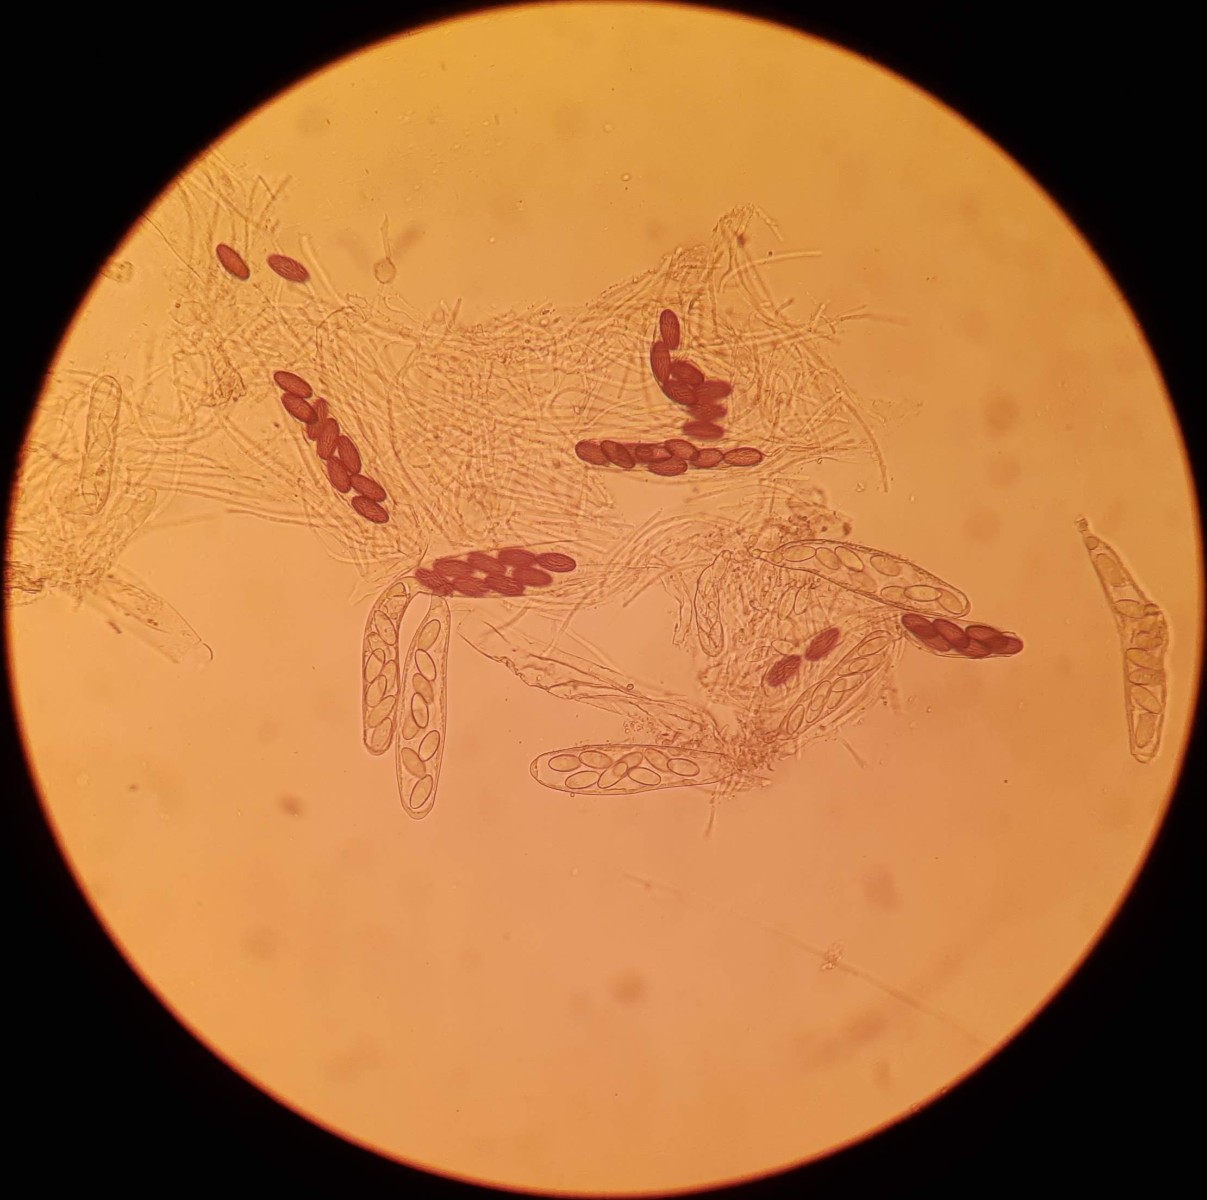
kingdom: Fungi
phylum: Ascomycota
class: Pezizomycetes
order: Pezizales
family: Ascobolaceae
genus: Ascobolus
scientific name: Ascobolus albidus
